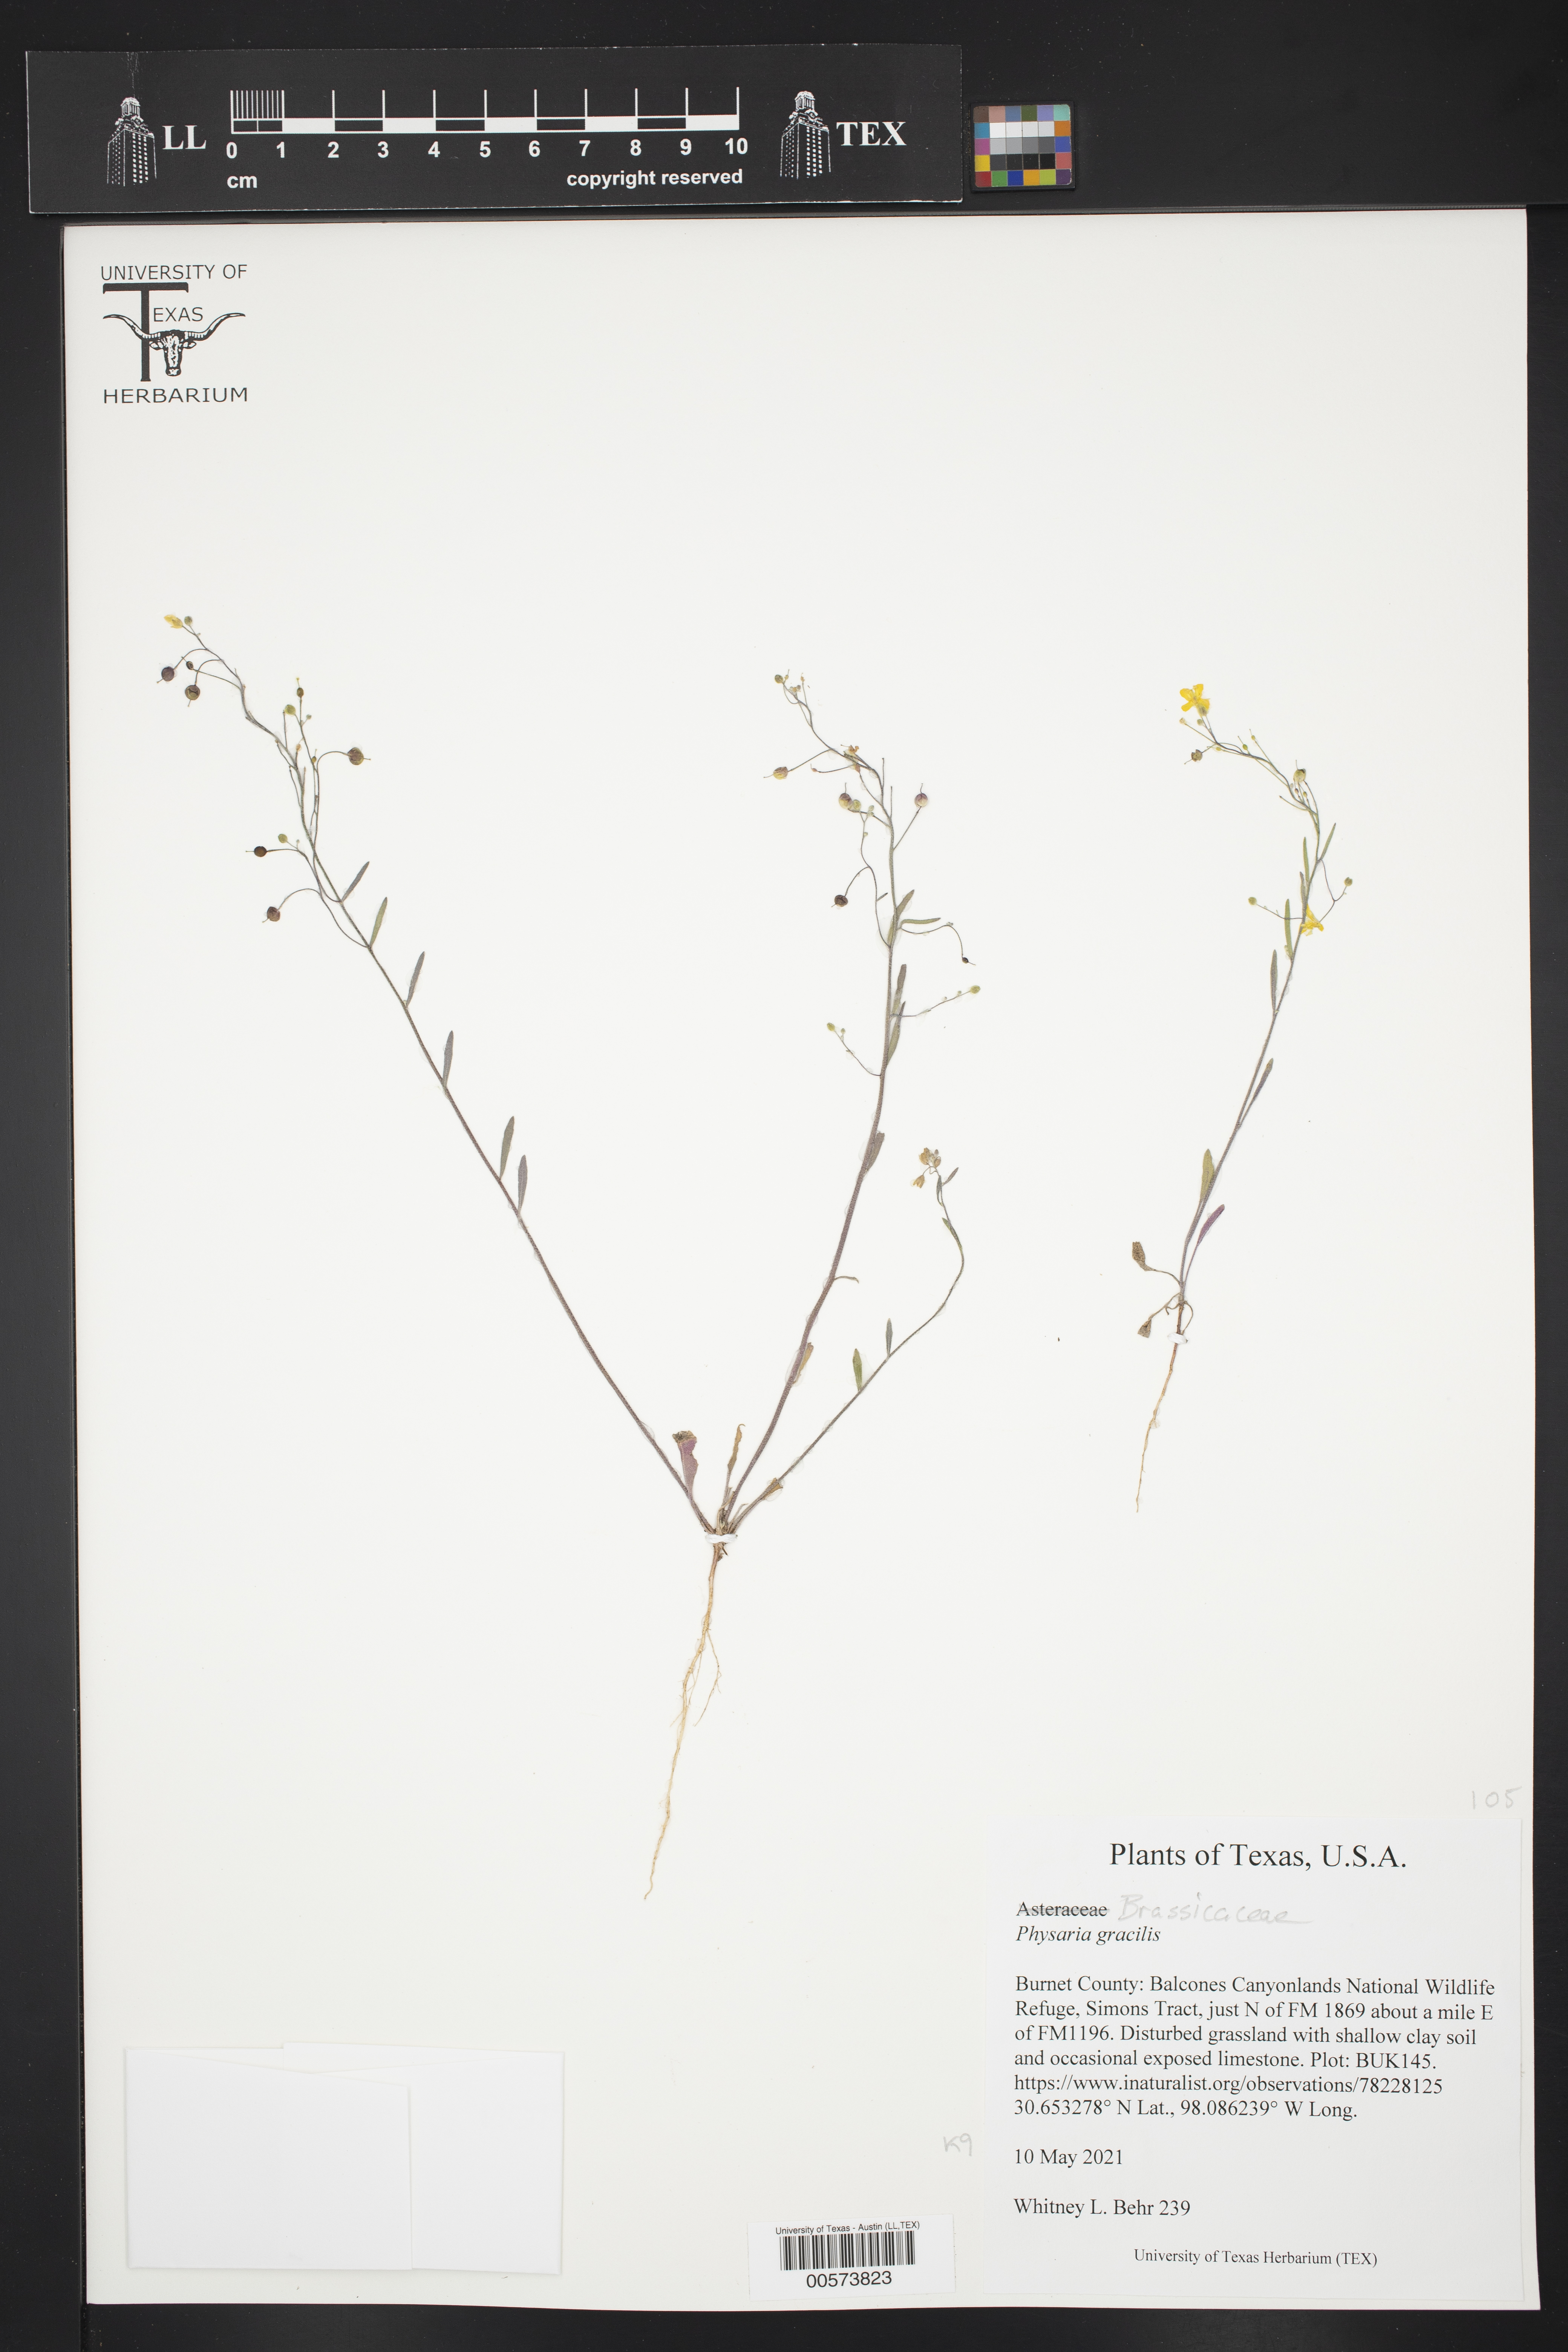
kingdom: Plantae
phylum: Tracheophyta
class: Magnoliopsida
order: Brassicales
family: Brassicaceae
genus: Physaria
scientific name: Physaria gracilis
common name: Spreading bladderpod
